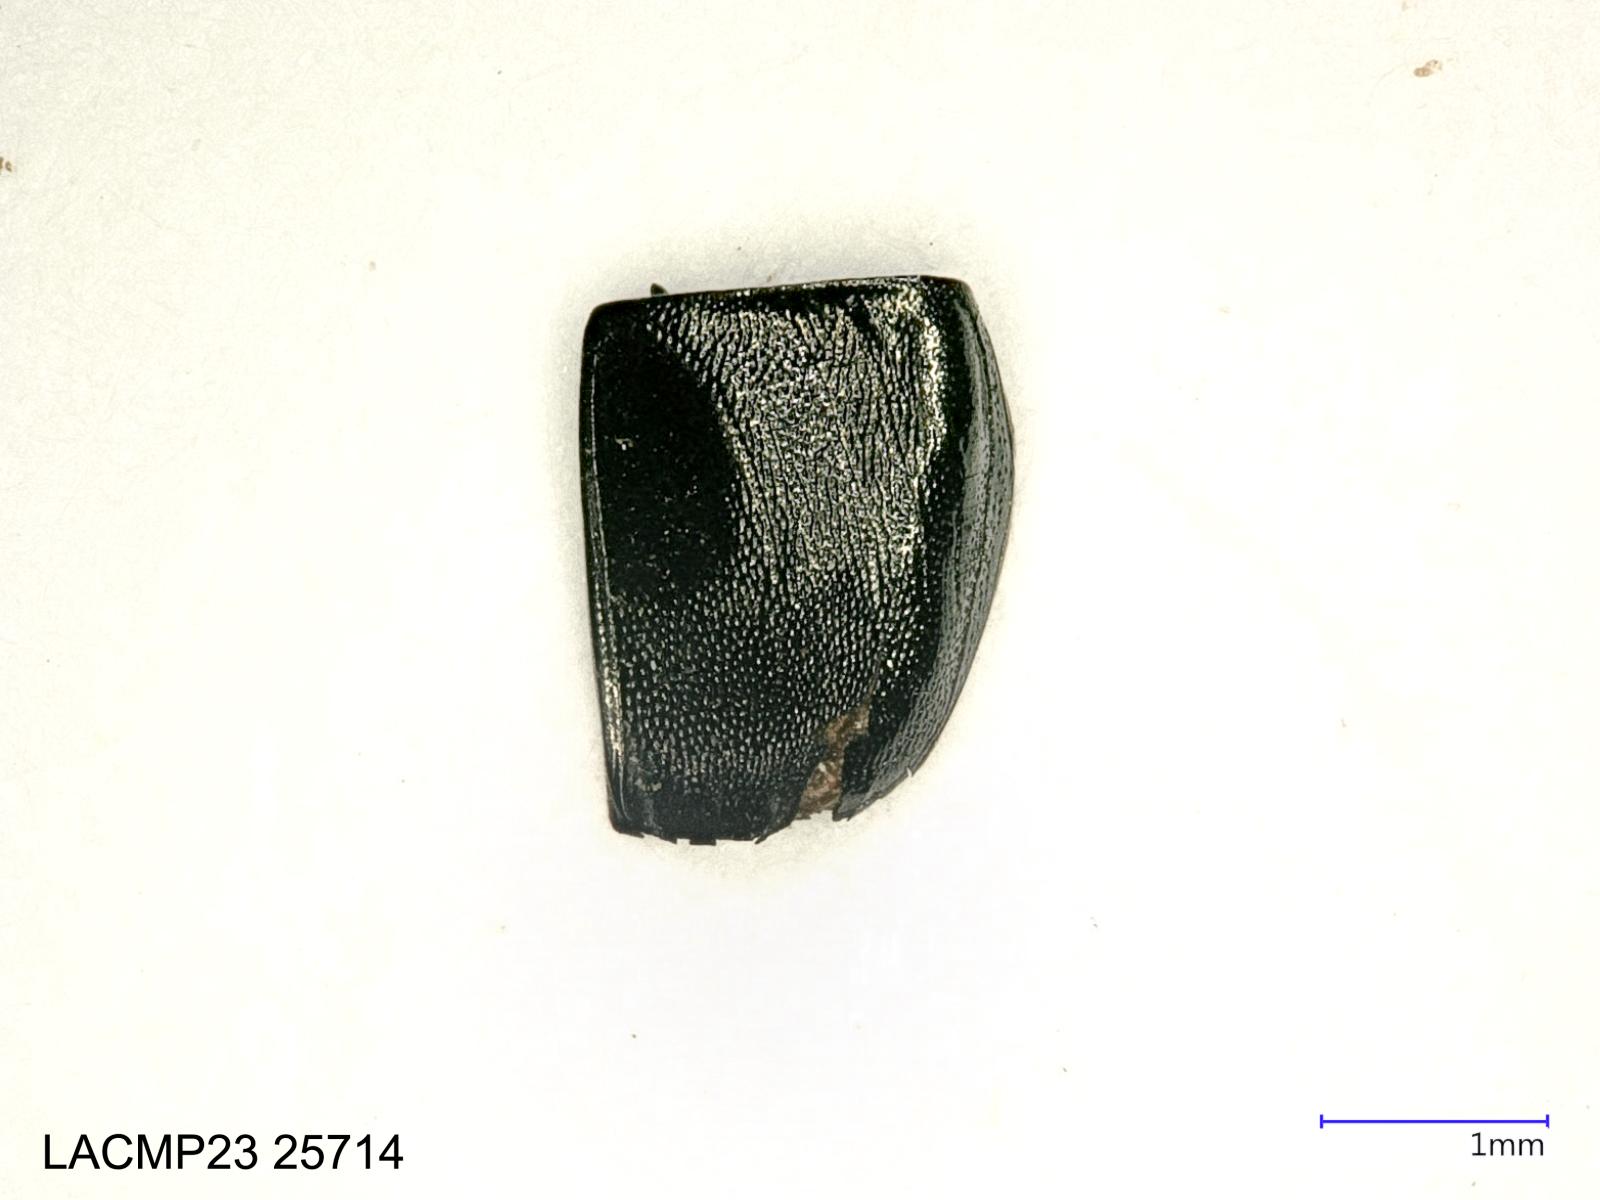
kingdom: Animalia
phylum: Arthropoda
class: Insecta
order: Coleoptera
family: Carabidae
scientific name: Carabidae
